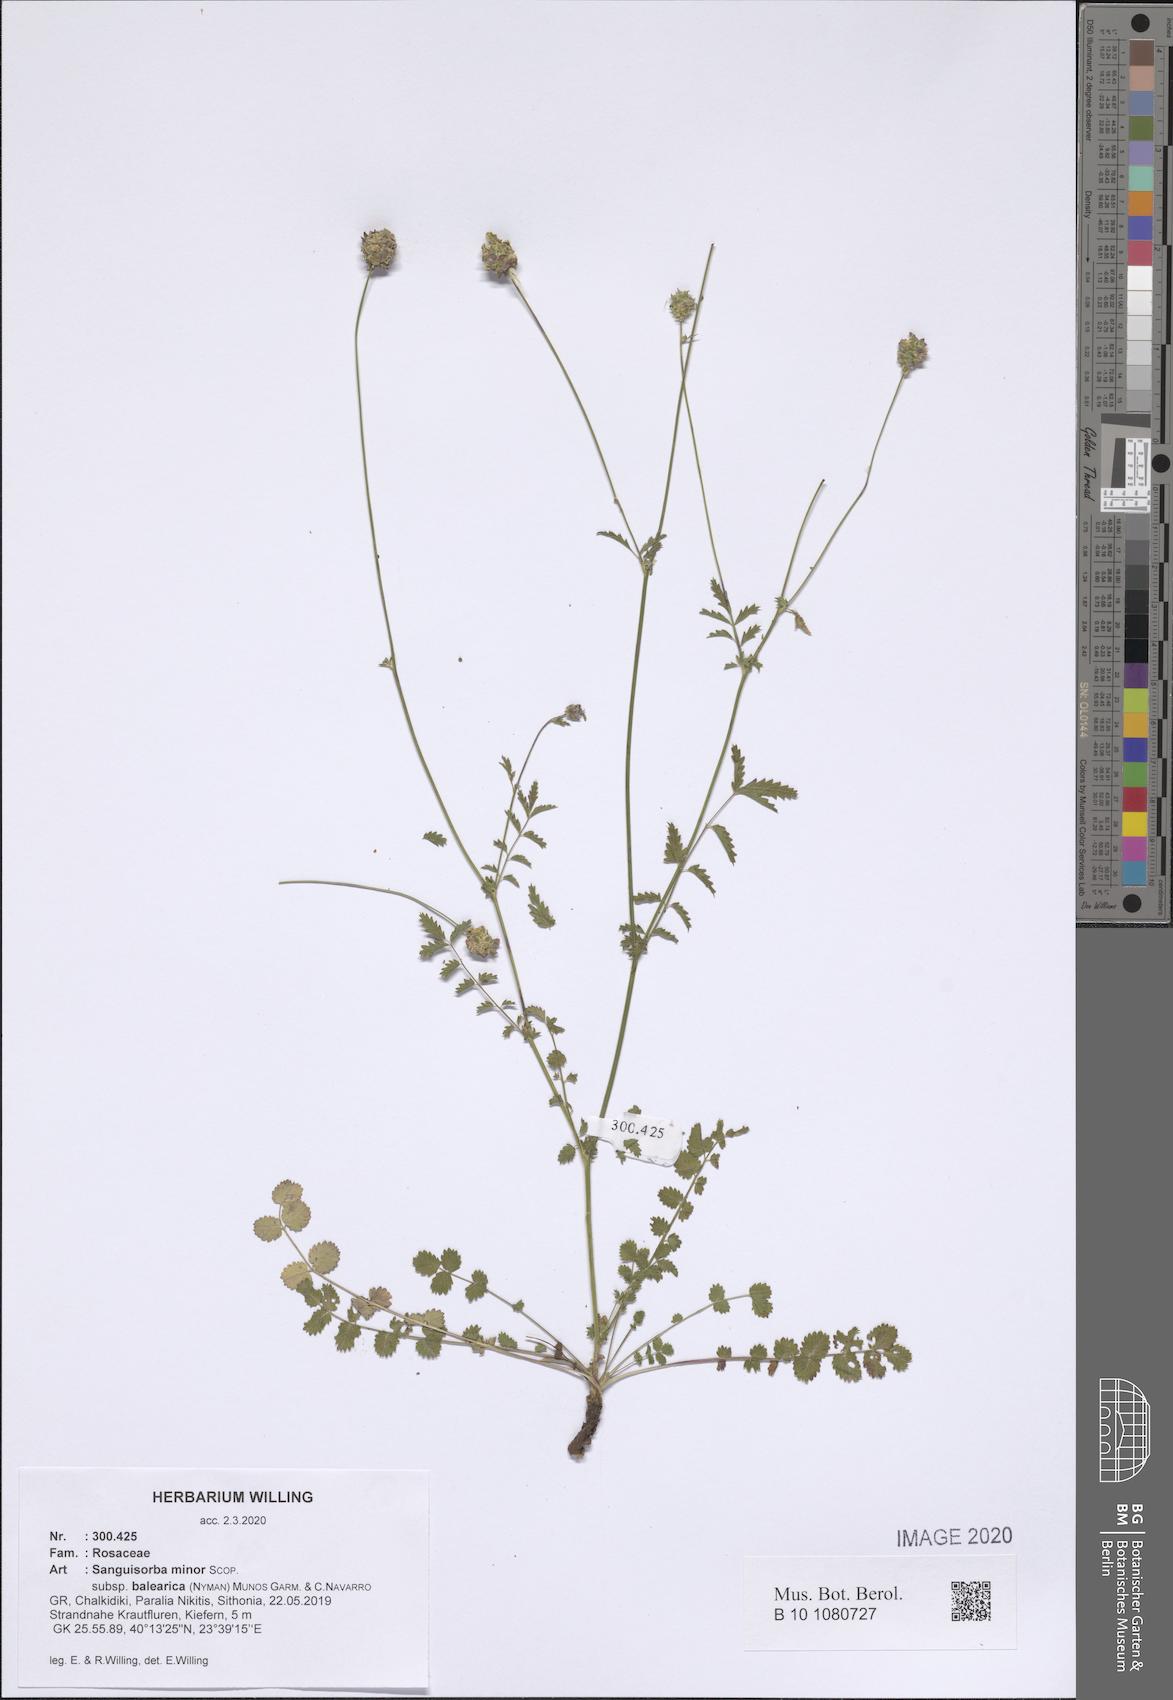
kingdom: Plantae
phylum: Tracheophyta
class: Magnoliopsida
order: Rosales
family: Rosaceae
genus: Poterium
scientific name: Poterium sanguisorba
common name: Salad burnet
